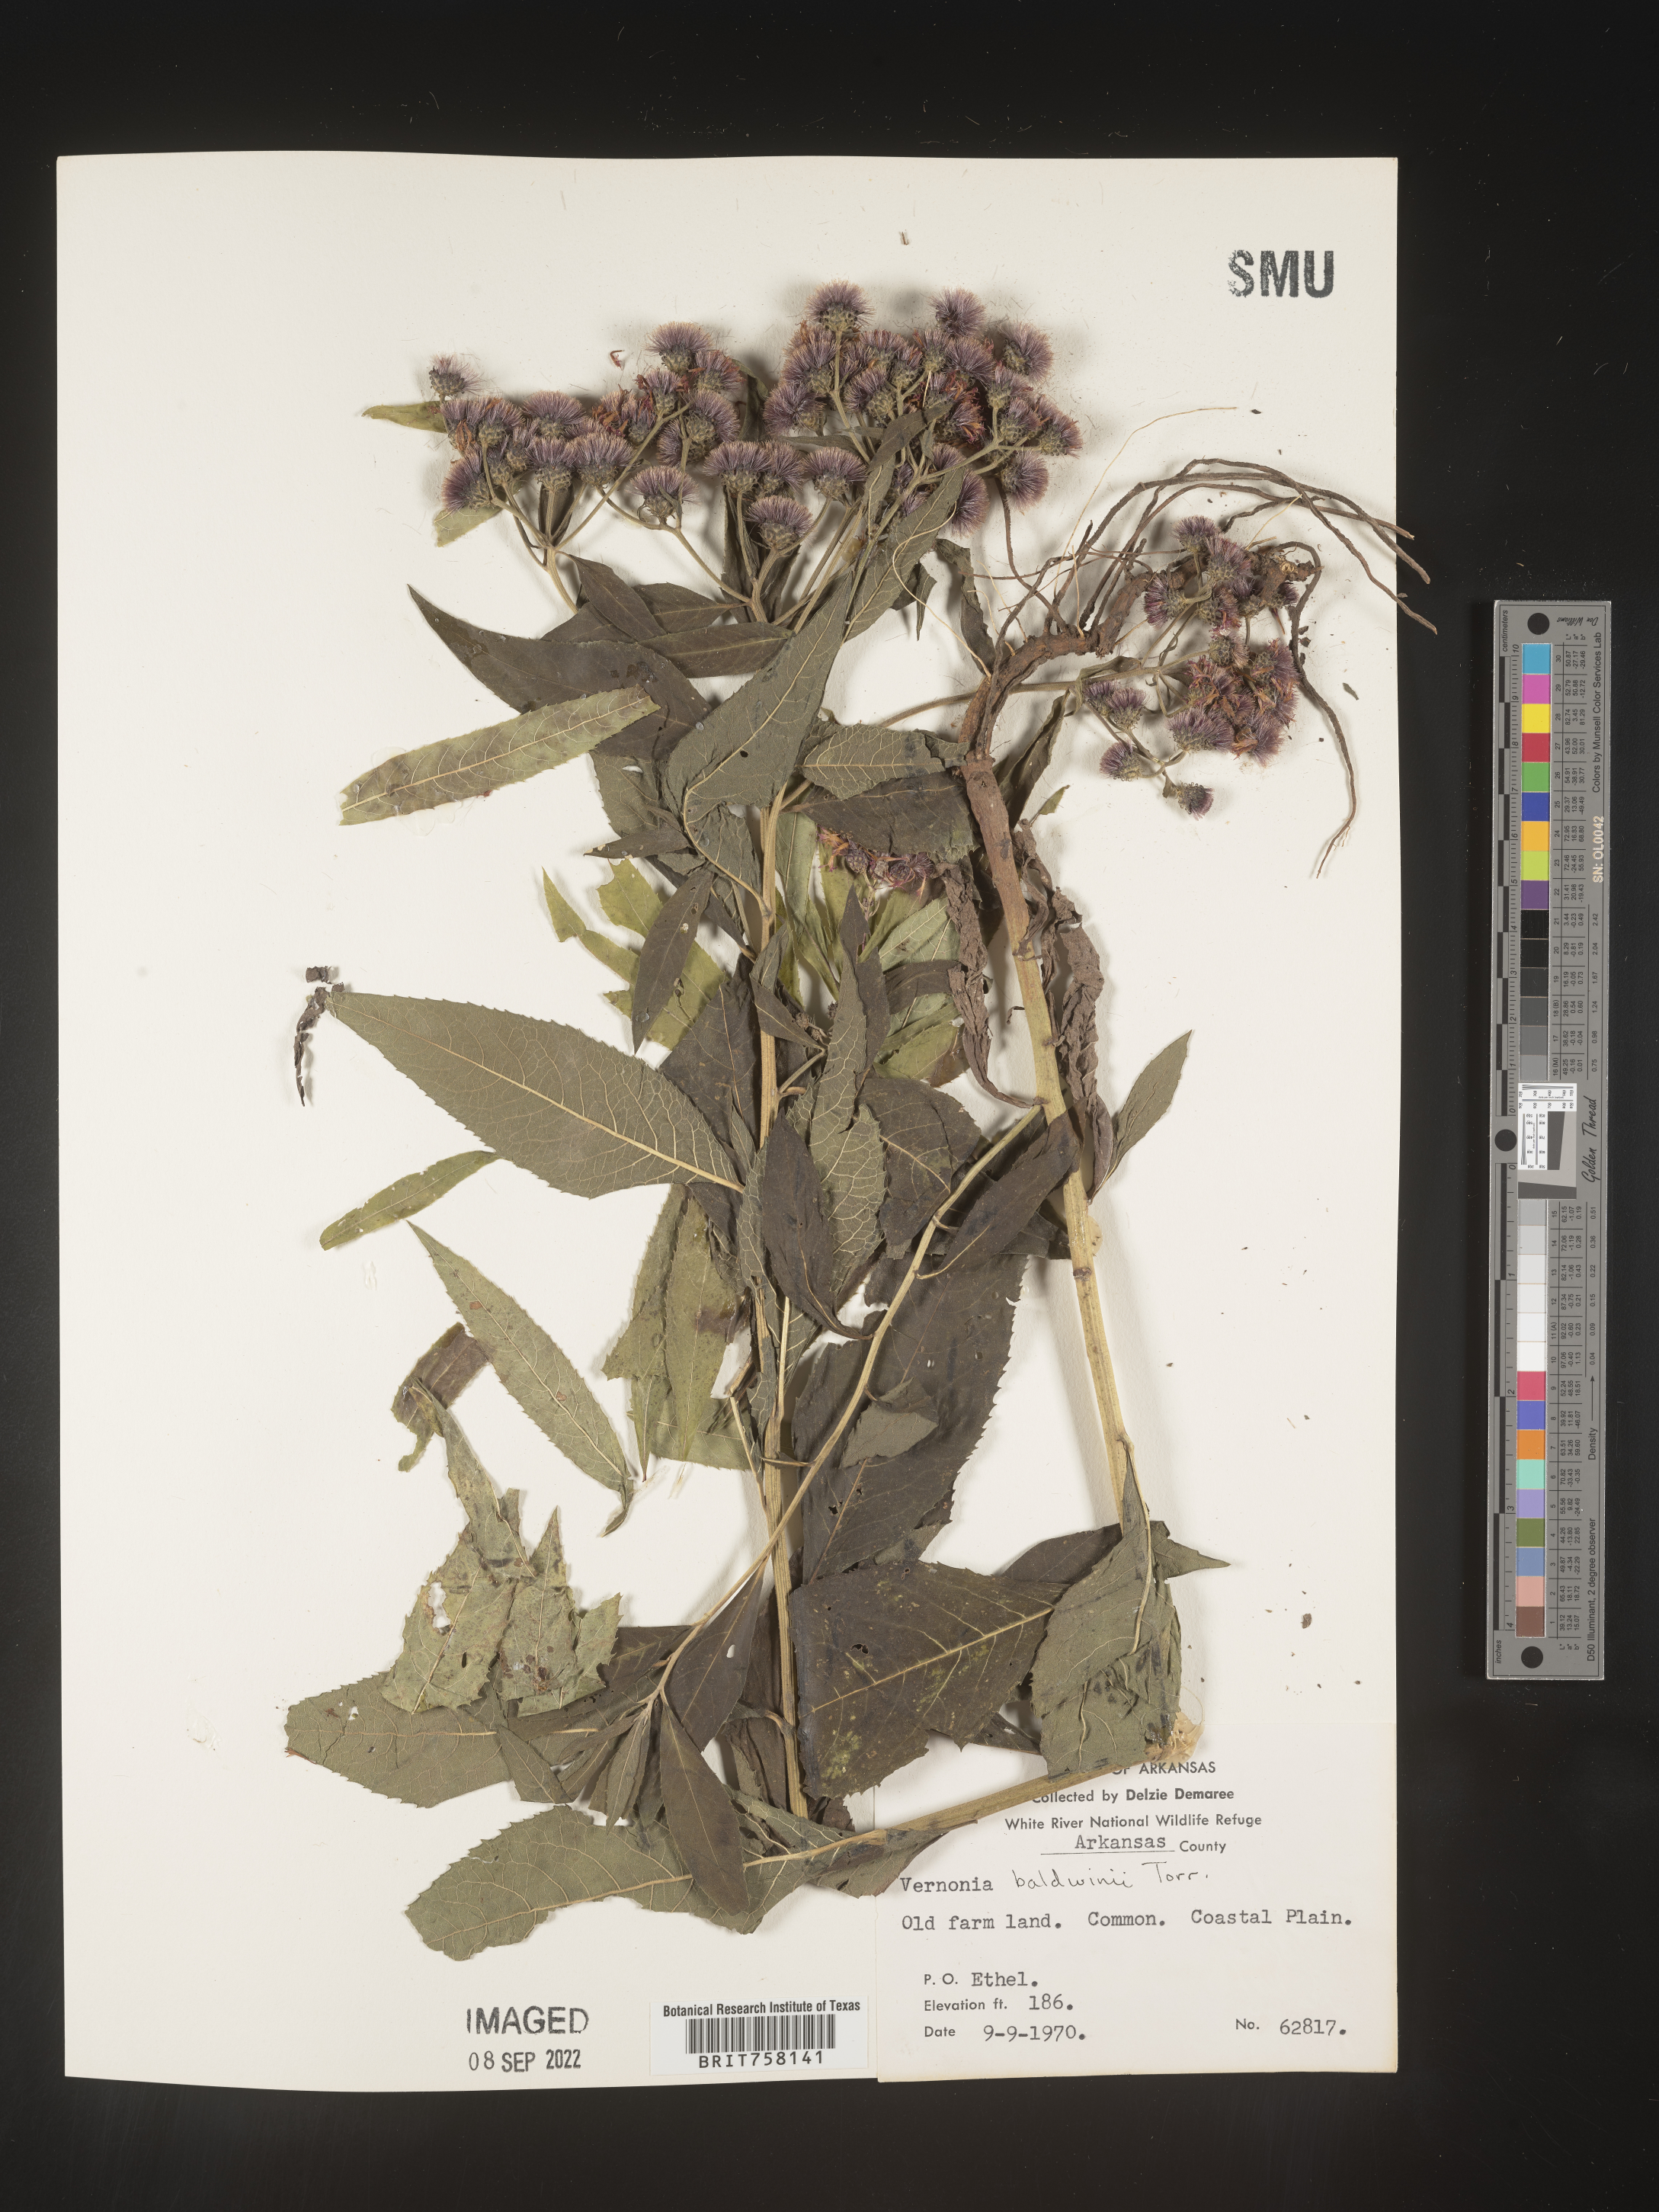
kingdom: Plantae
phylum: Tracheophyta
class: Magnoliopsida
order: Asterales
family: Asteraceae
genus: Vernonia
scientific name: Vernonia baldwinii
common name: Western ironweed
